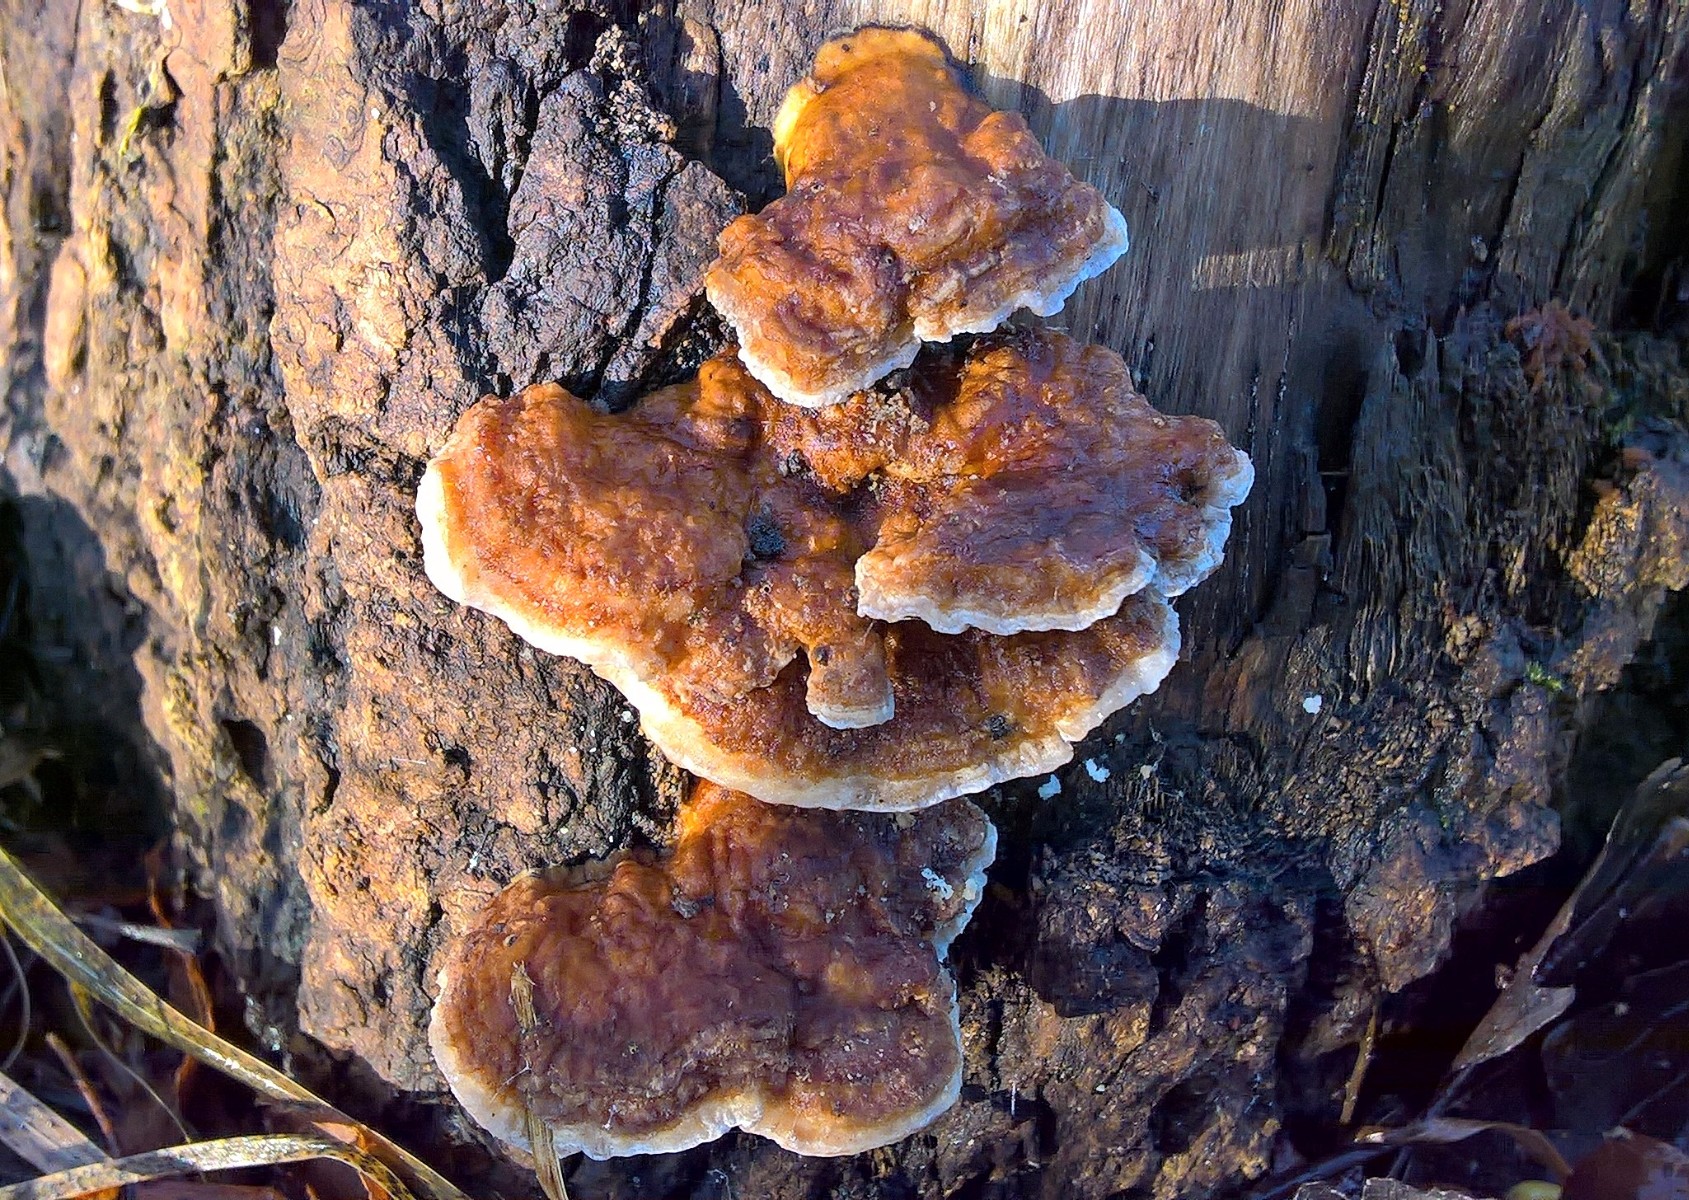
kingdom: Fungi
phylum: Basidiomycota
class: Agaricomycetes
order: Polyporales
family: Polyporaceae
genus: Trametes
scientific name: Trametes ochracea
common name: bæltet læderporesvamp
